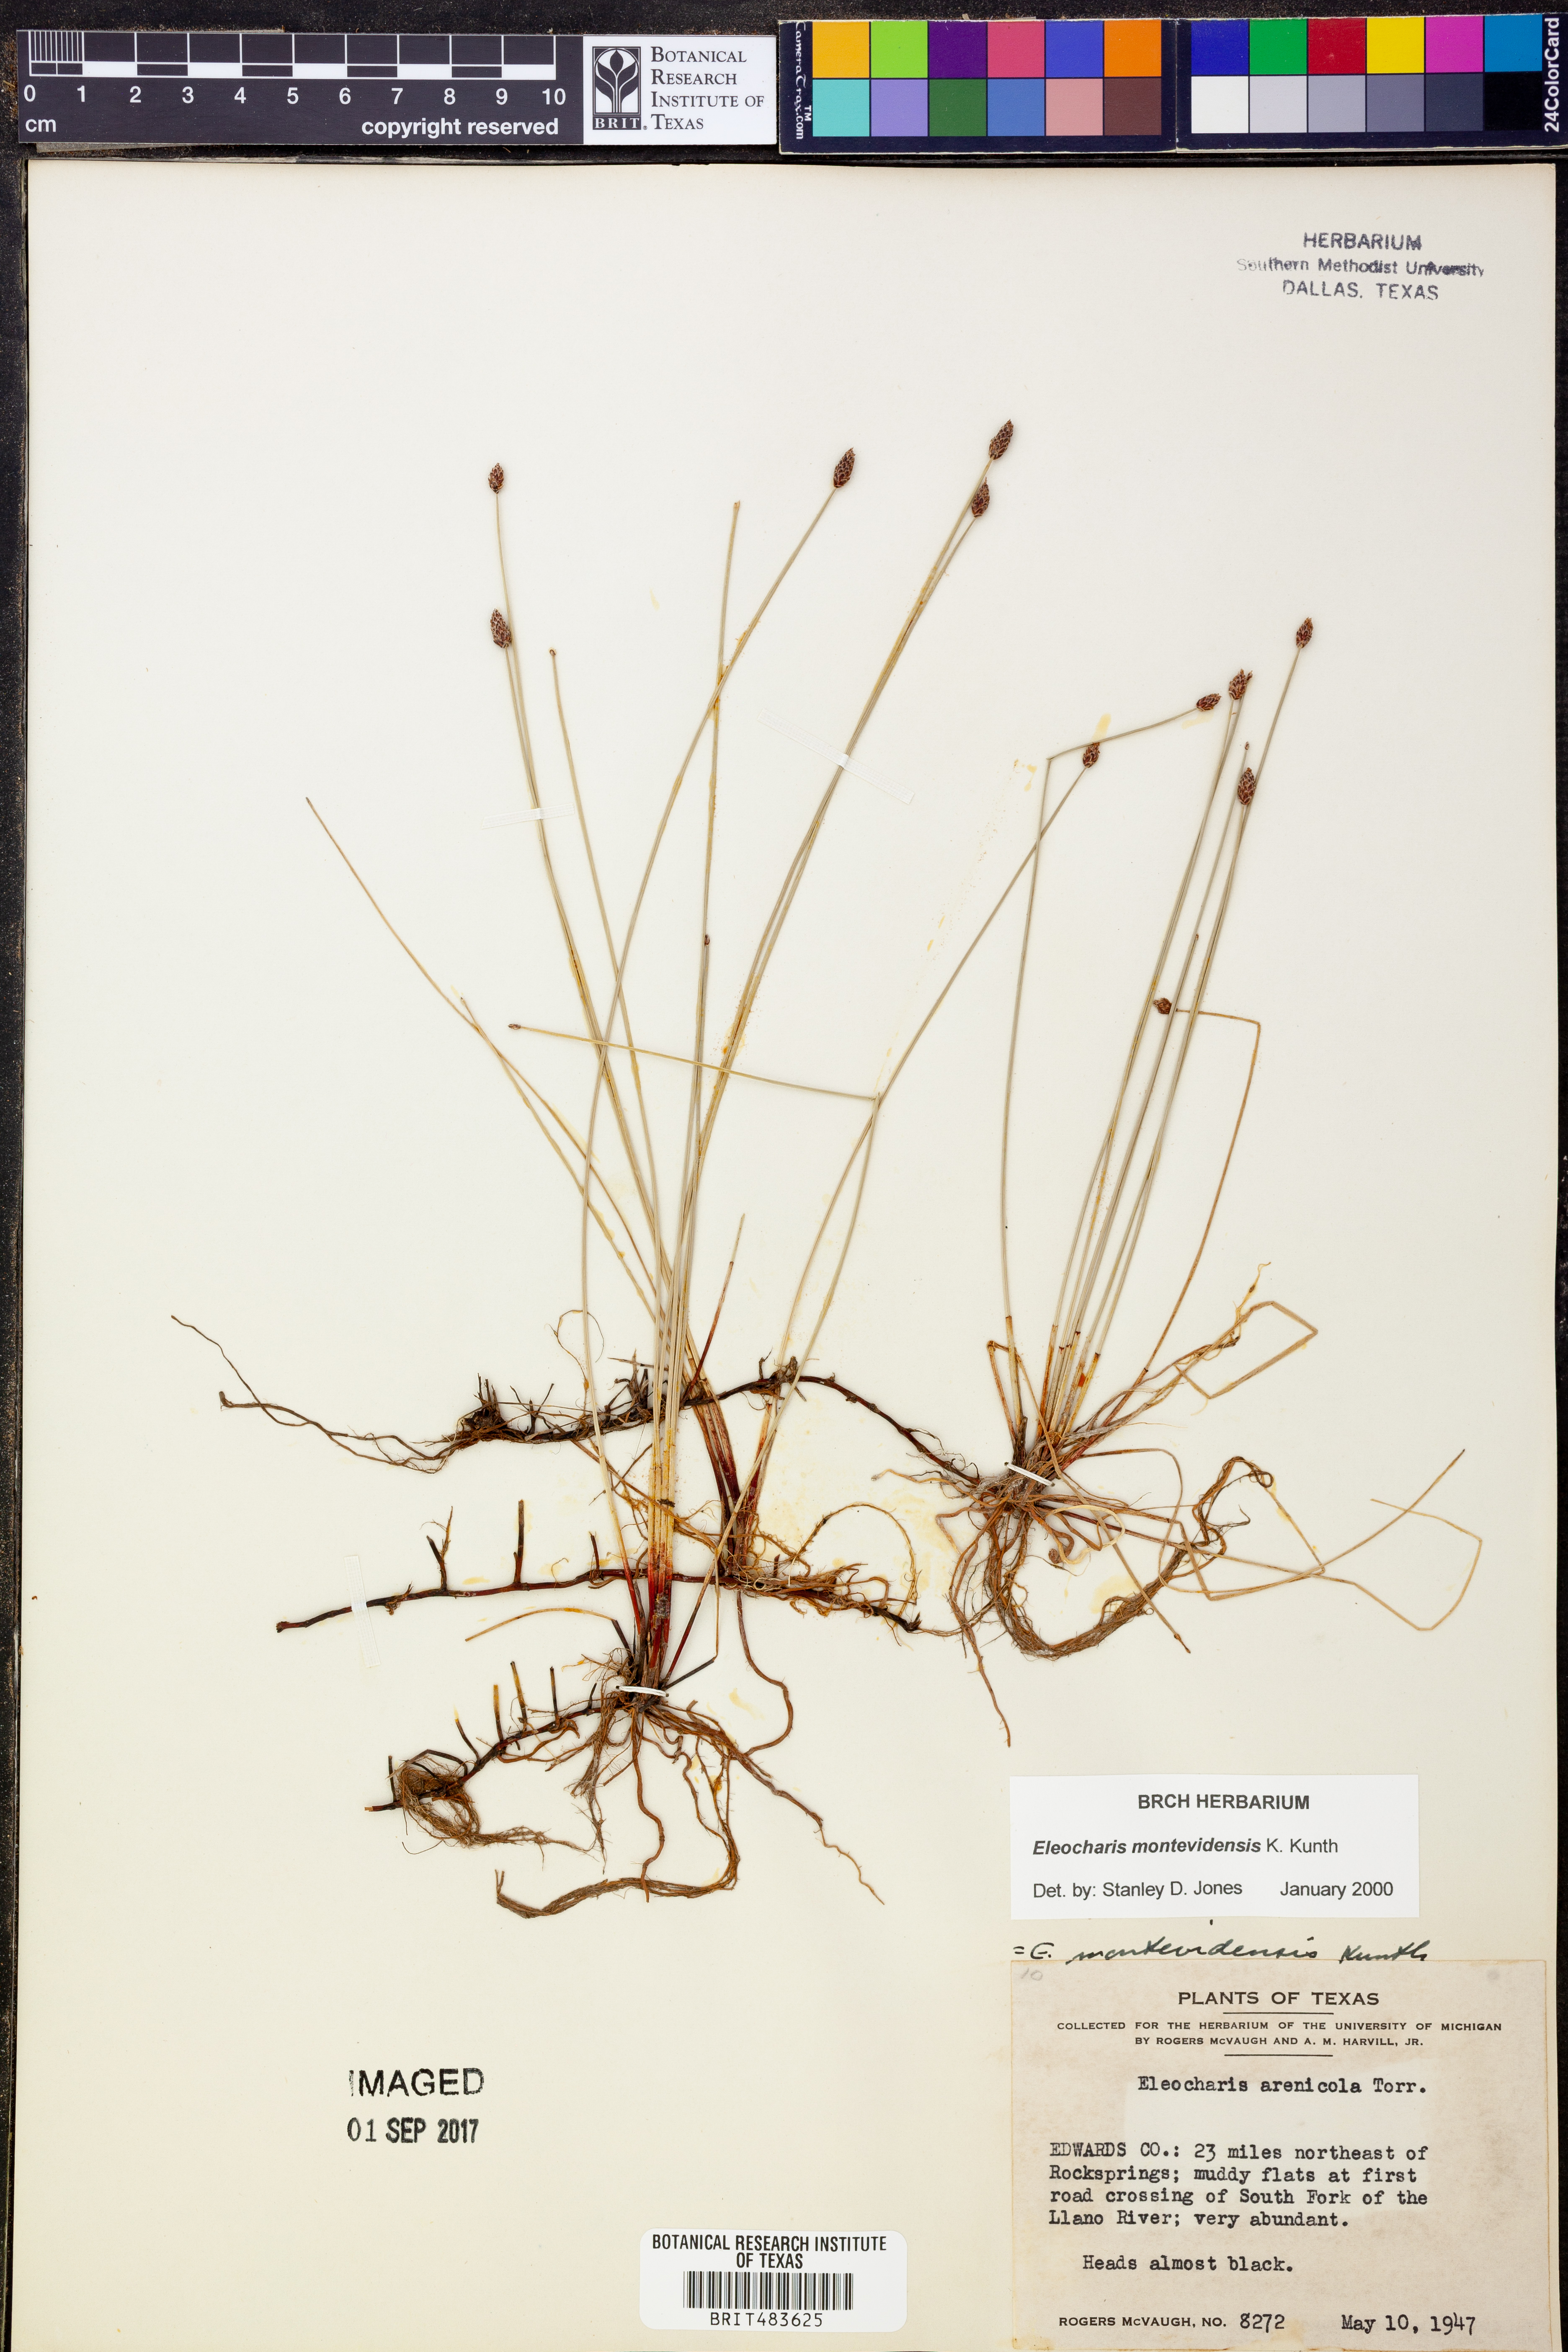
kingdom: Plantae
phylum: Tracheophyta
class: Liliopsida
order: Poales
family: Cyperaceae
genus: Eleocharis
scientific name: Eleocharis montevidensis
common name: Sand spike-rush
